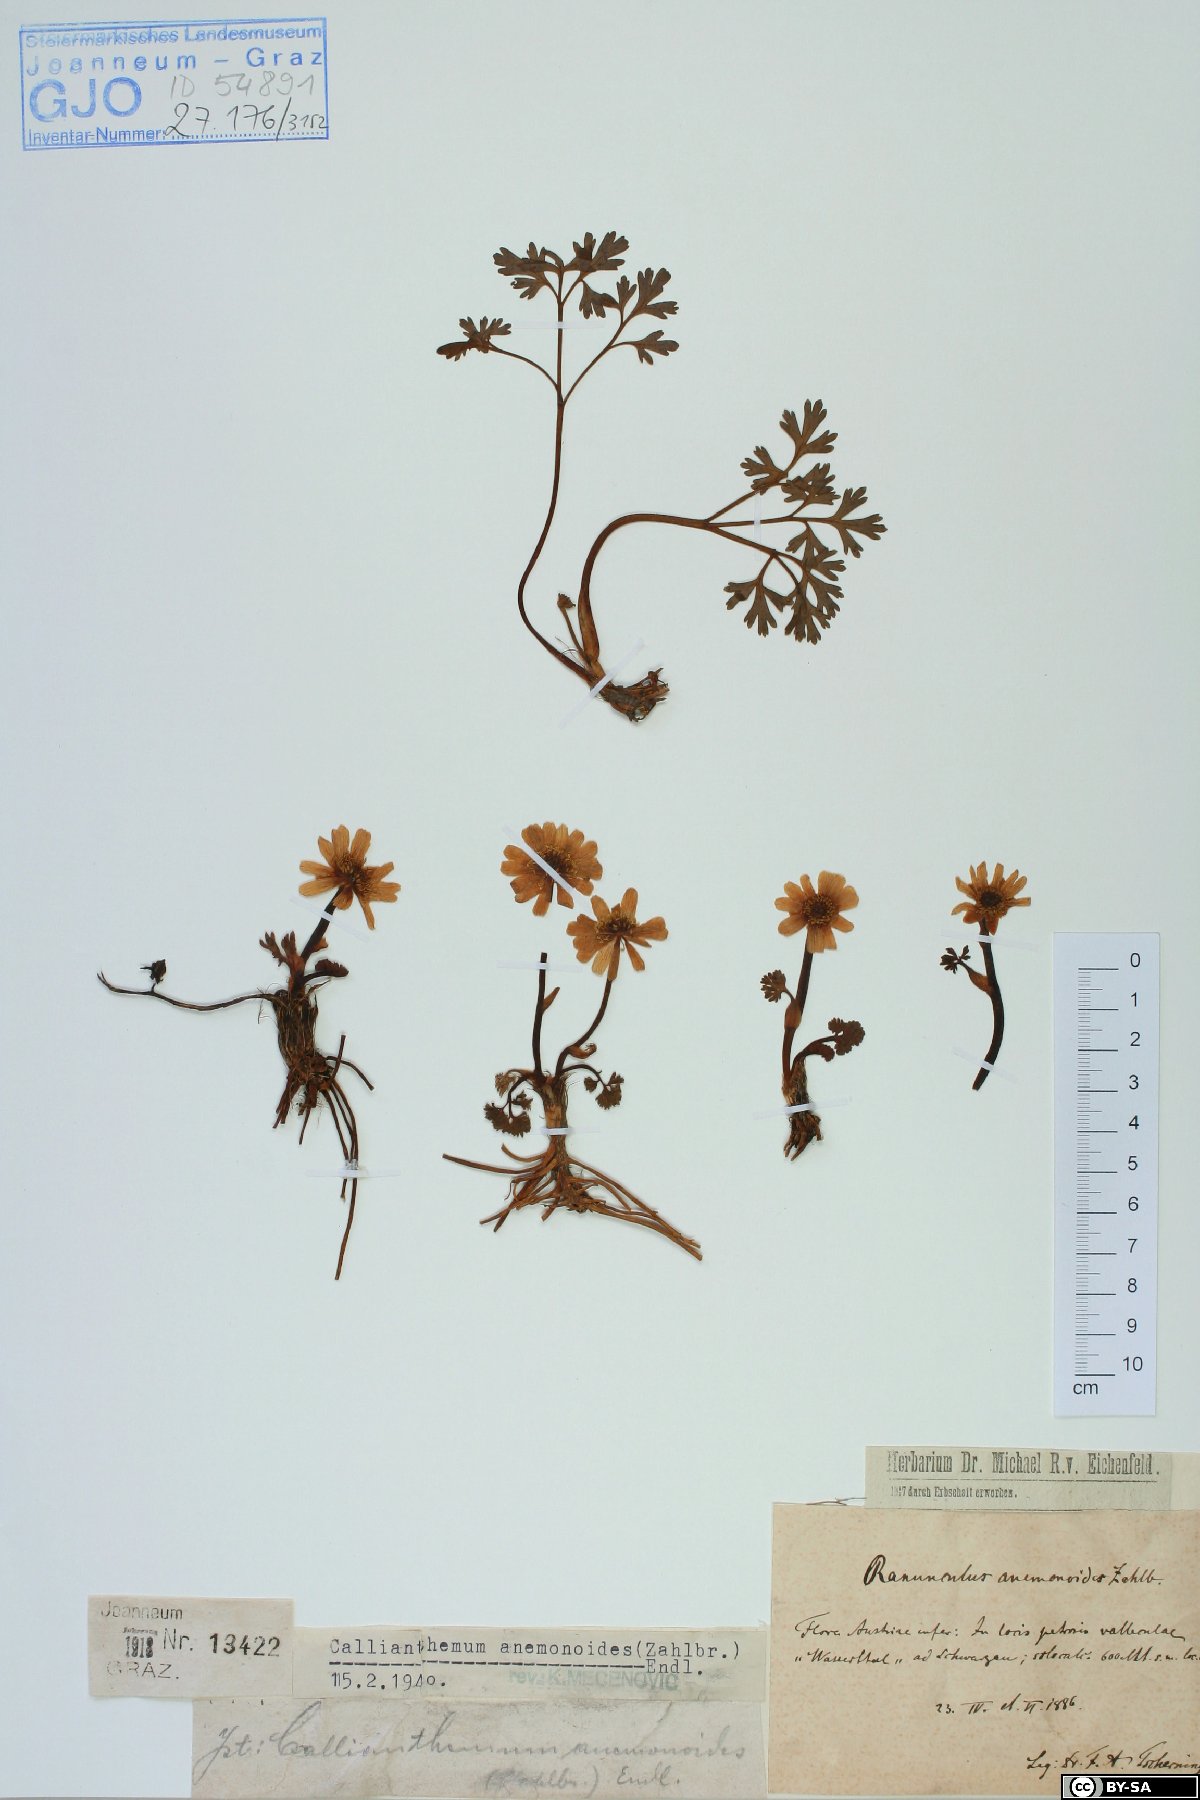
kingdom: Plantae
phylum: Tracheophyta
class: Magnoliopsida
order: Ranunculales
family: Ranunculaceae
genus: Callianthemum
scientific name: Callianthemum anemonoides
